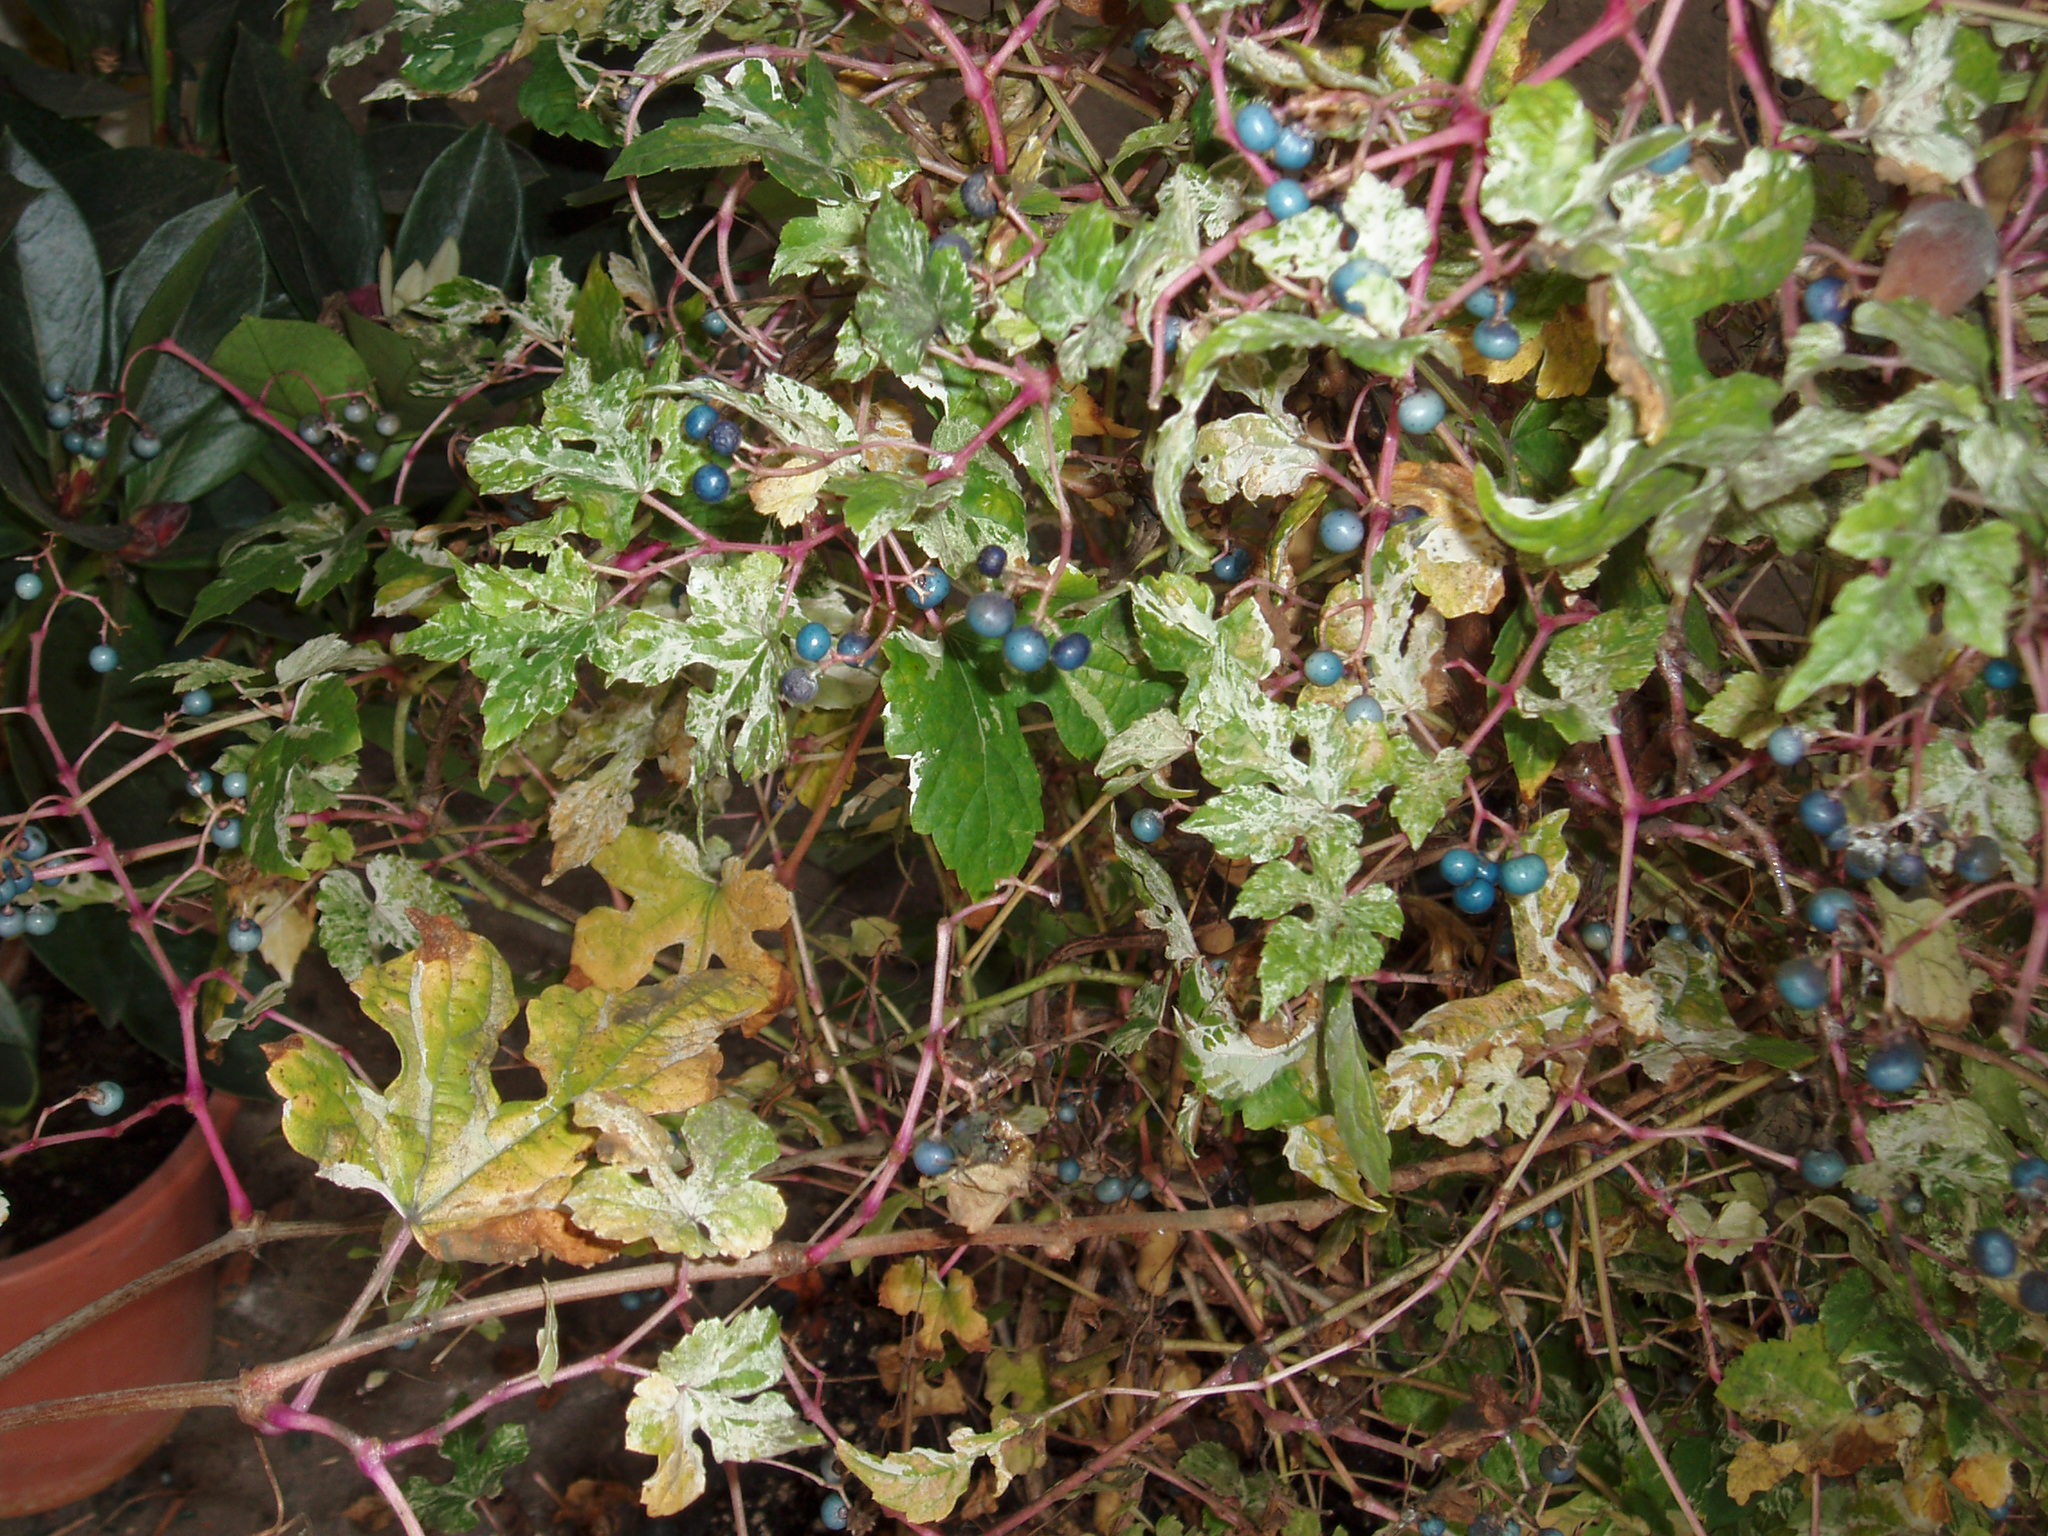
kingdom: Plantae
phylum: Tracheophyta
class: Magnoliopsida
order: Vitales
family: Vitaceae
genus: Ampelopsis
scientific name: Ampelopsis glandulosa
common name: Amur peppervine
